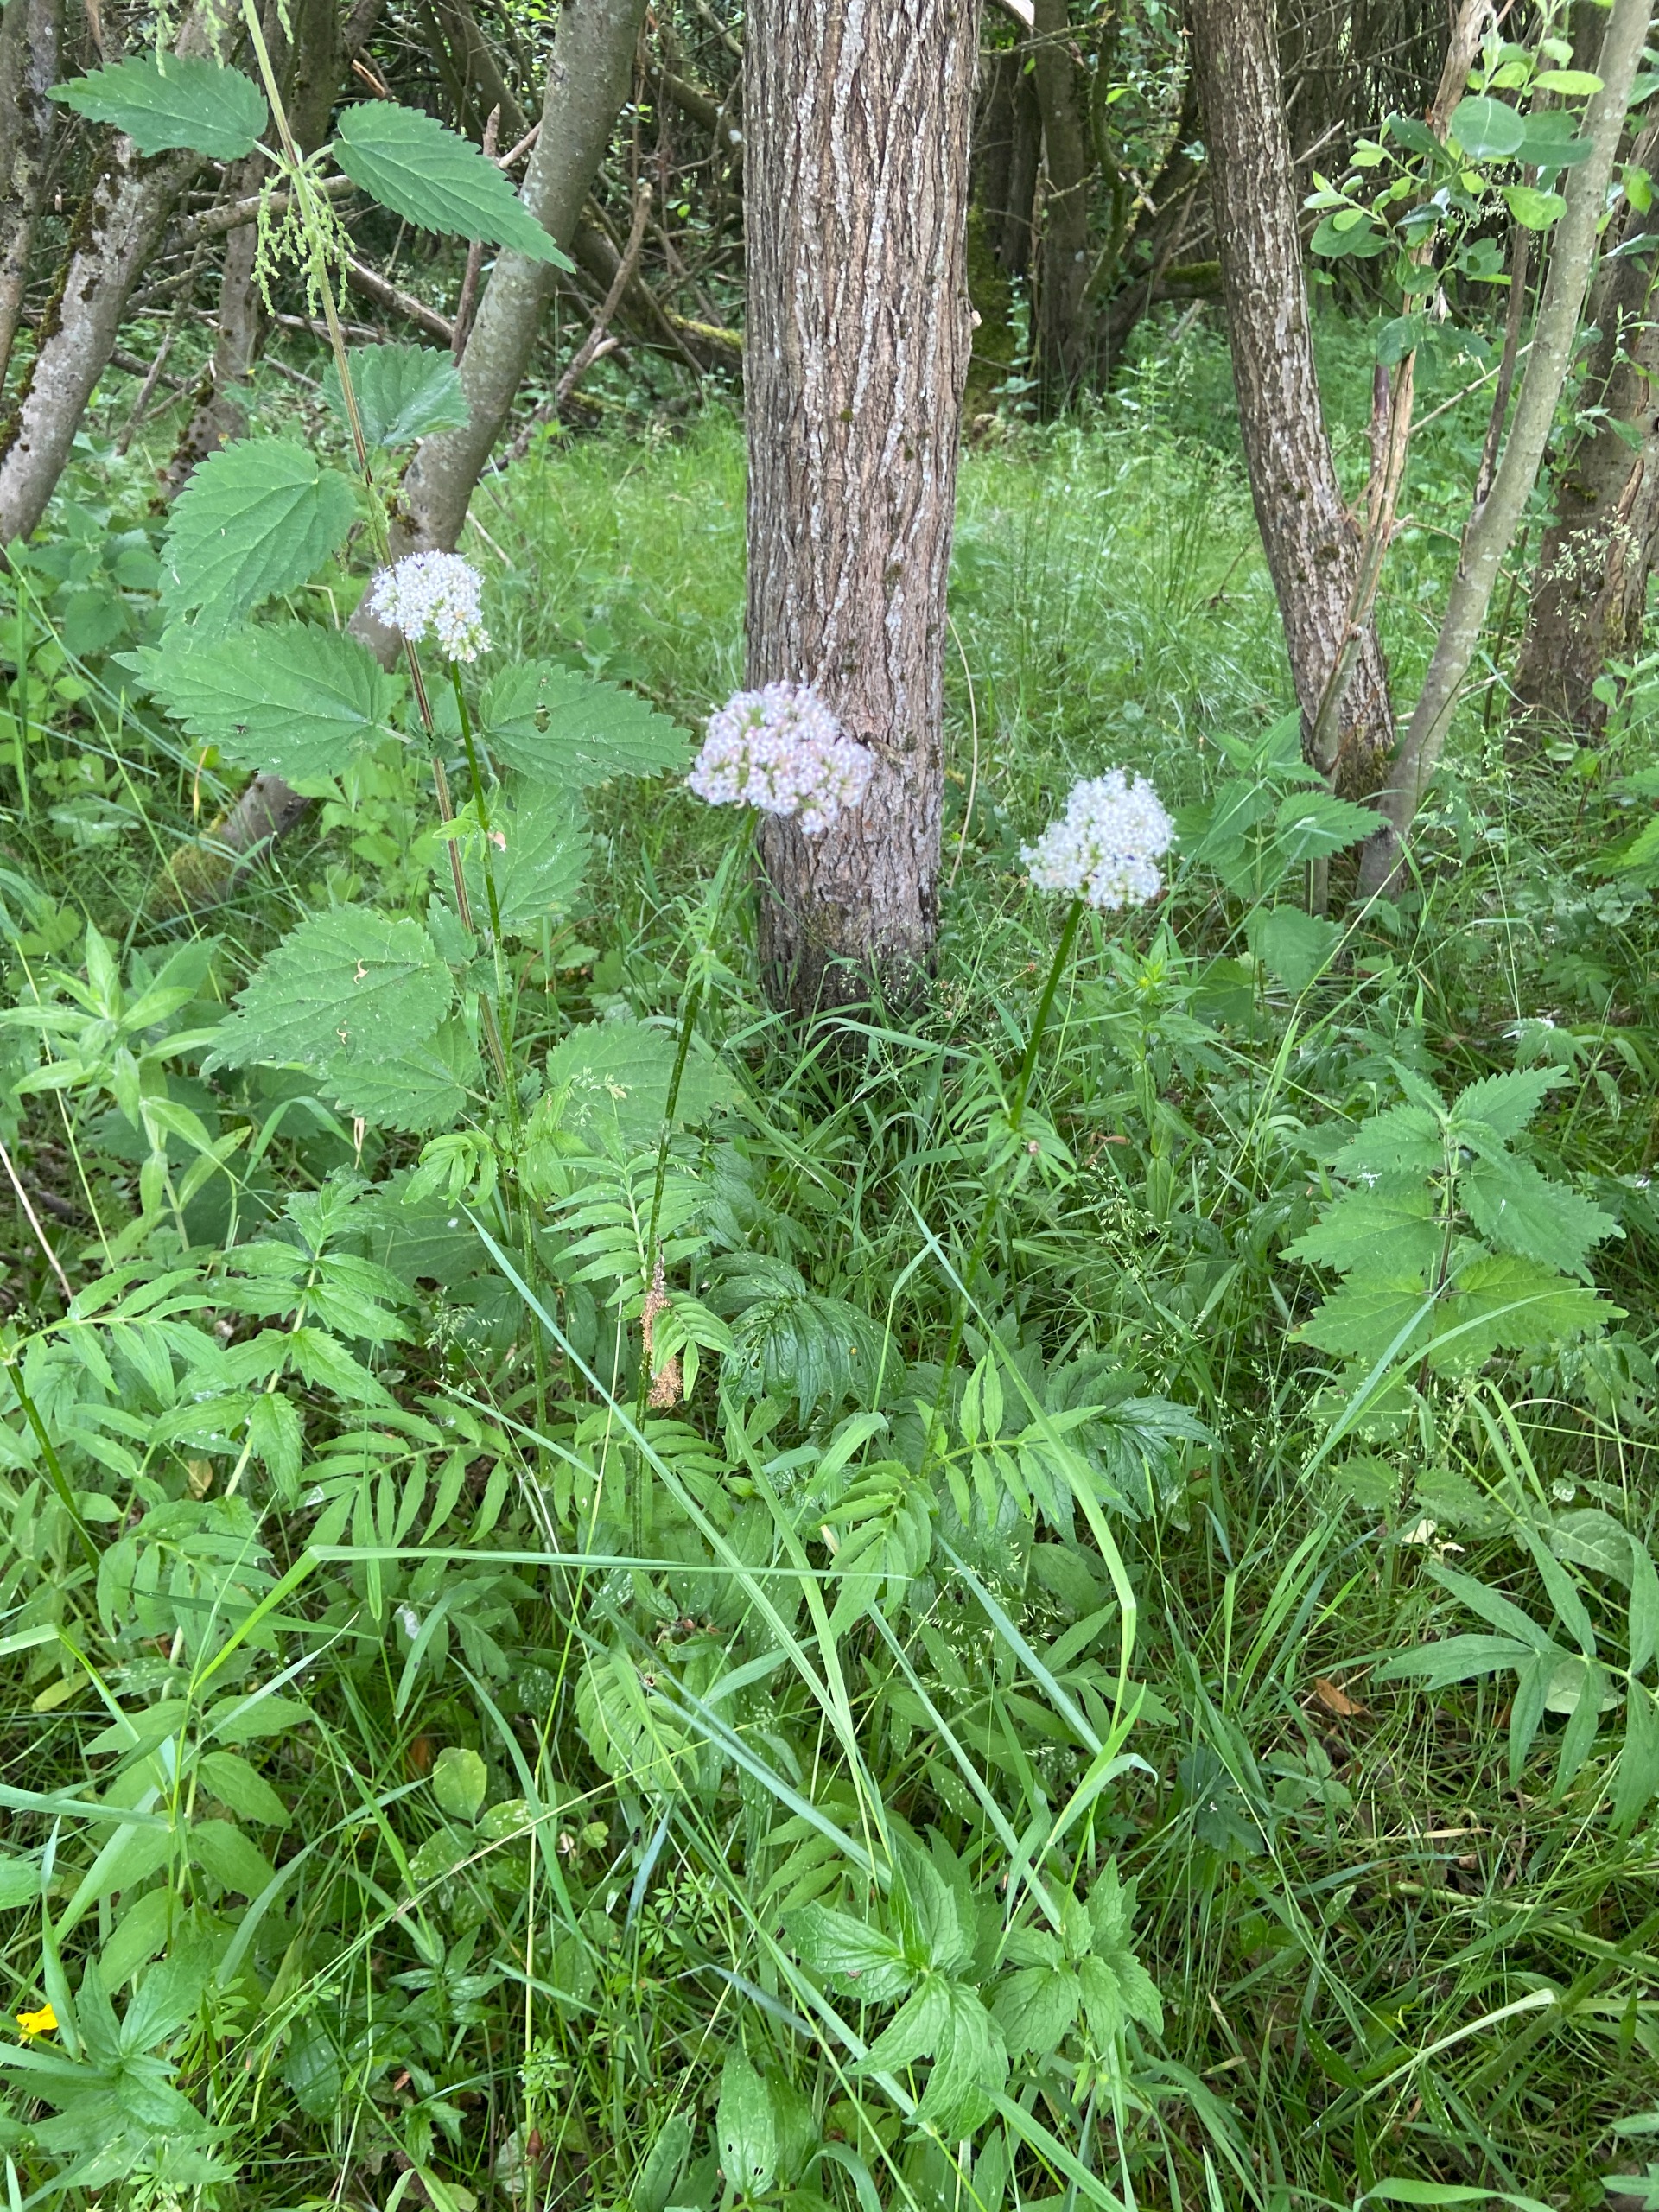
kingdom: Plantae
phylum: Tracheophyta
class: Magnoliopsida
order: Dipsacales
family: Caprifoliaceae
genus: Valeriana
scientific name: Valeriana sambucifolia
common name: Hyldebladet baldrian
